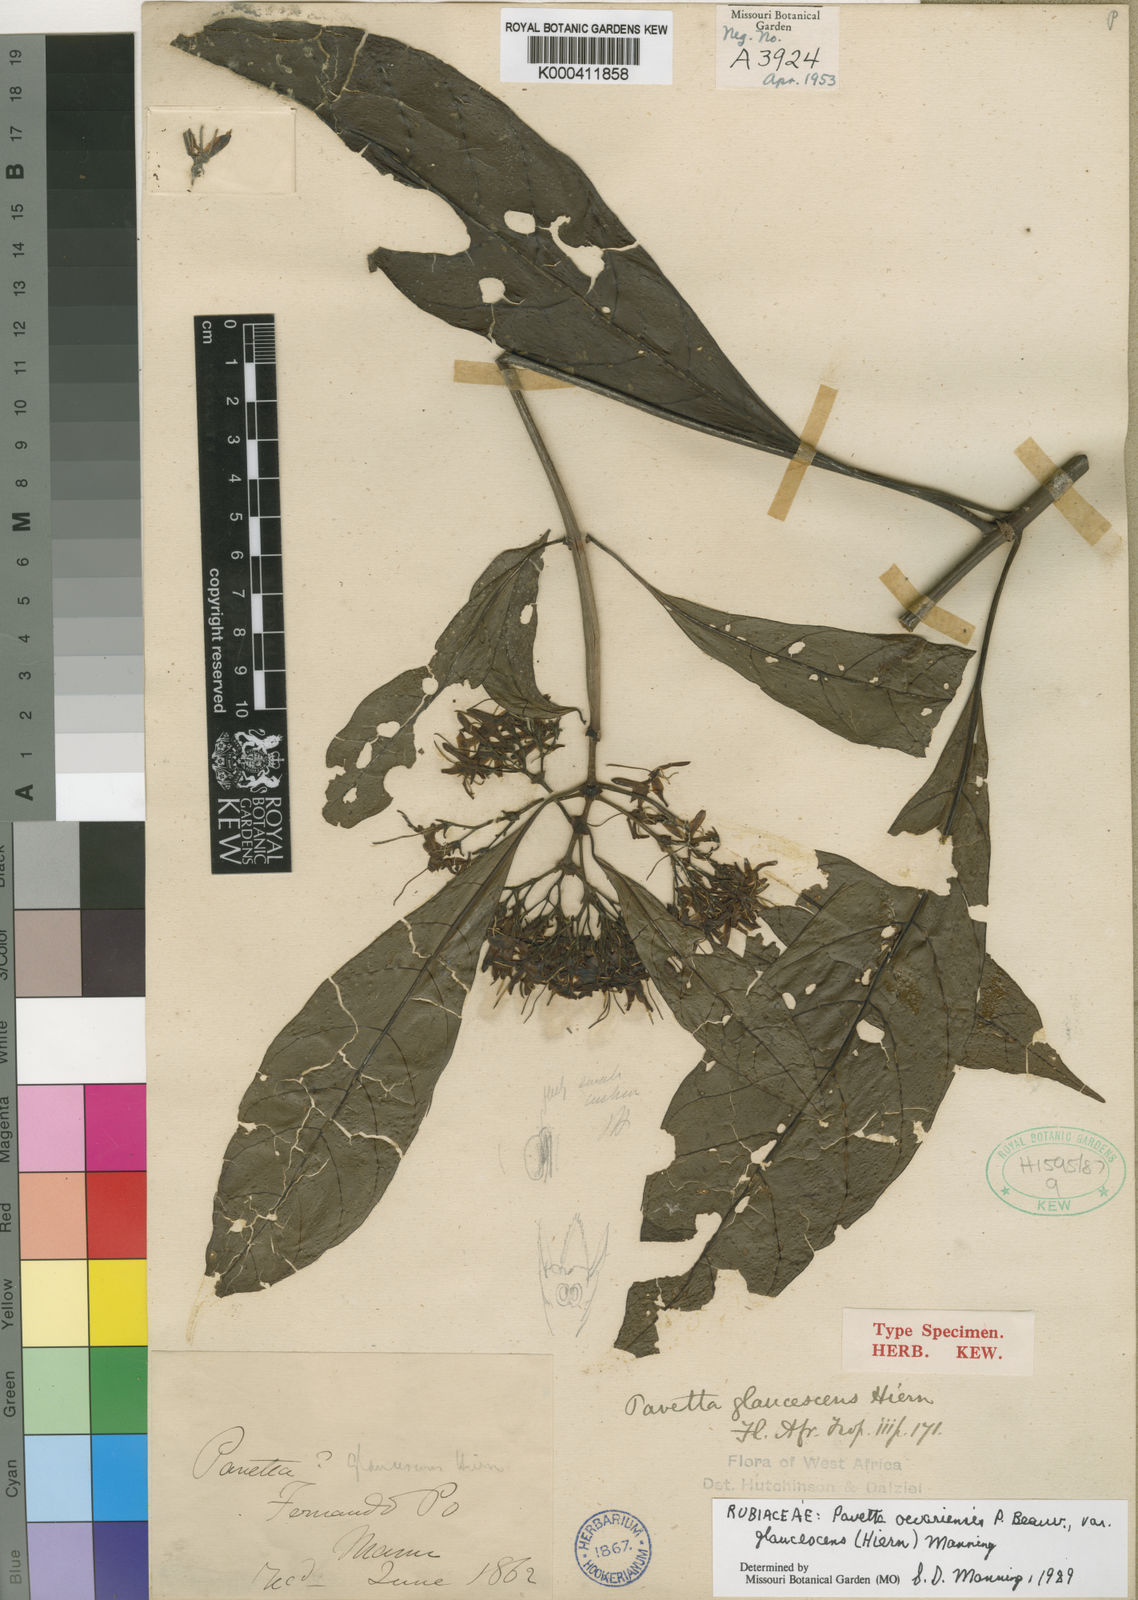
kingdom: Plantae
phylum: Tracheophyta
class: Magnoliopsida
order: Gentianales
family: Rubiaceae
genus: Pavetta
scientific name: Pavetta owariensis
